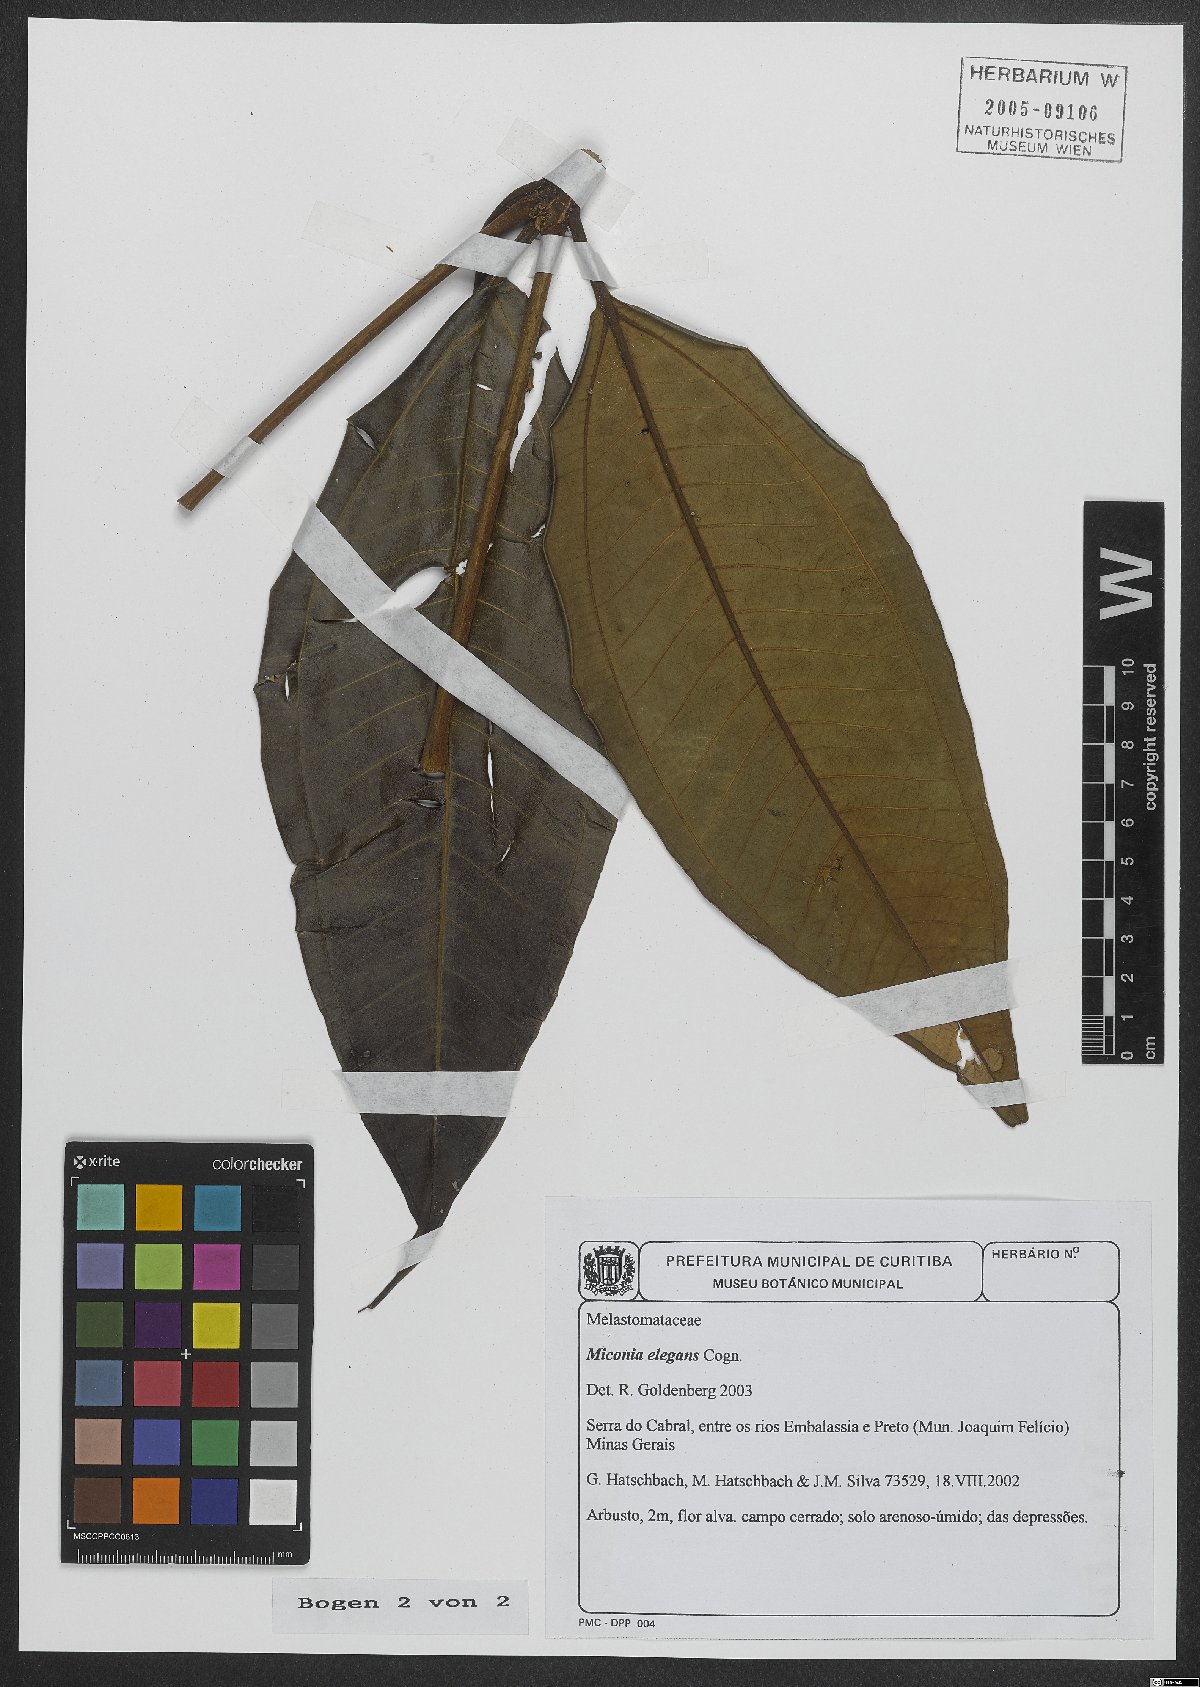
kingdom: Plantae
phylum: Tracheophyta
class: Magnoliopsida
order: Myrtales
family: Melastomataceae
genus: Miconia
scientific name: Miconia elegans
